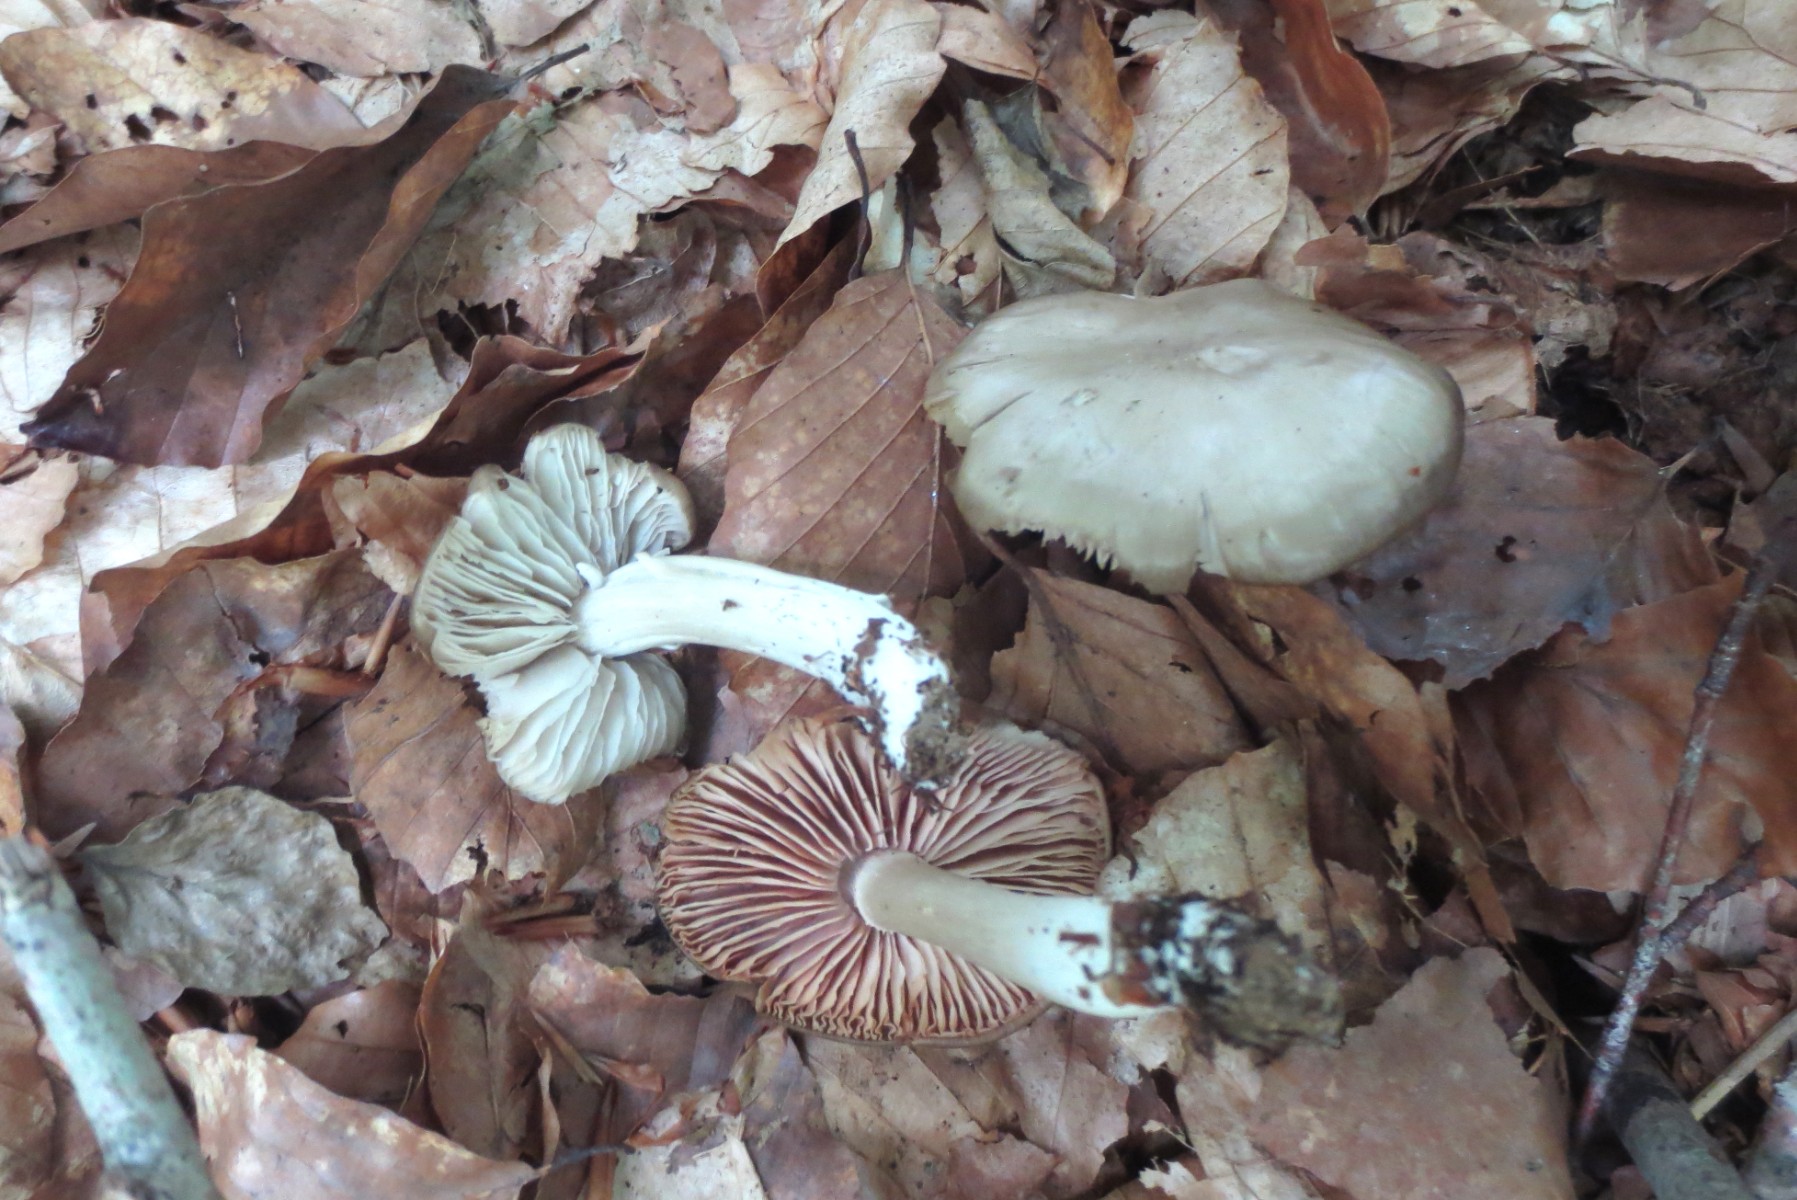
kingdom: Fungi
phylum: Basidiomycota
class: Agaricomycetes
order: Agaricales
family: Entolomataceae
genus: Entoloma
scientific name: Entoloma rhodopolium
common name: skov-rødblad
